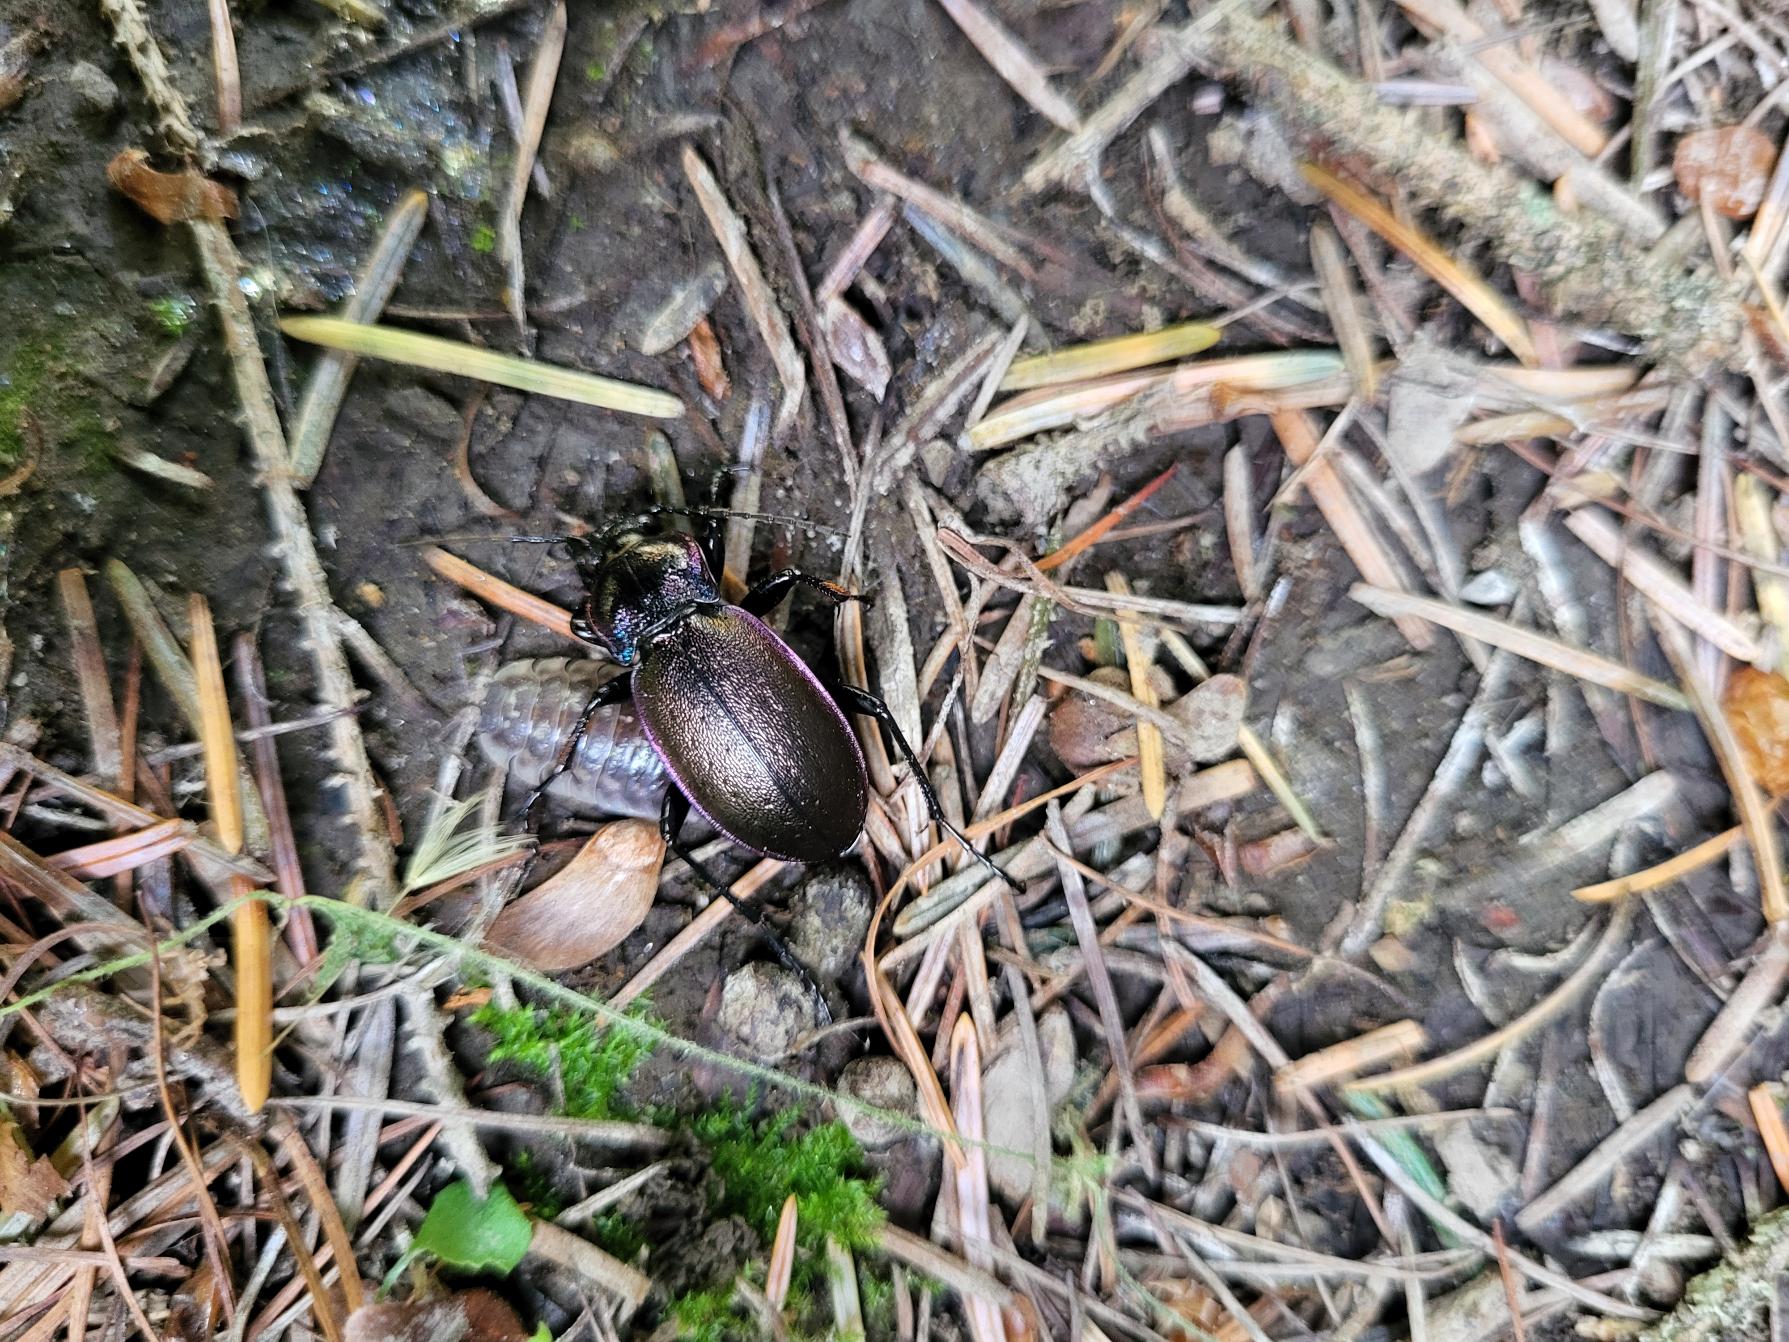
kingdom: Animalia
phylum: Arthropoda
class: Insecta
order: Coleoptera
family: Carabidae
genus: Carabus
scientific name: Carabus nemoralis
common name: Kratløber
